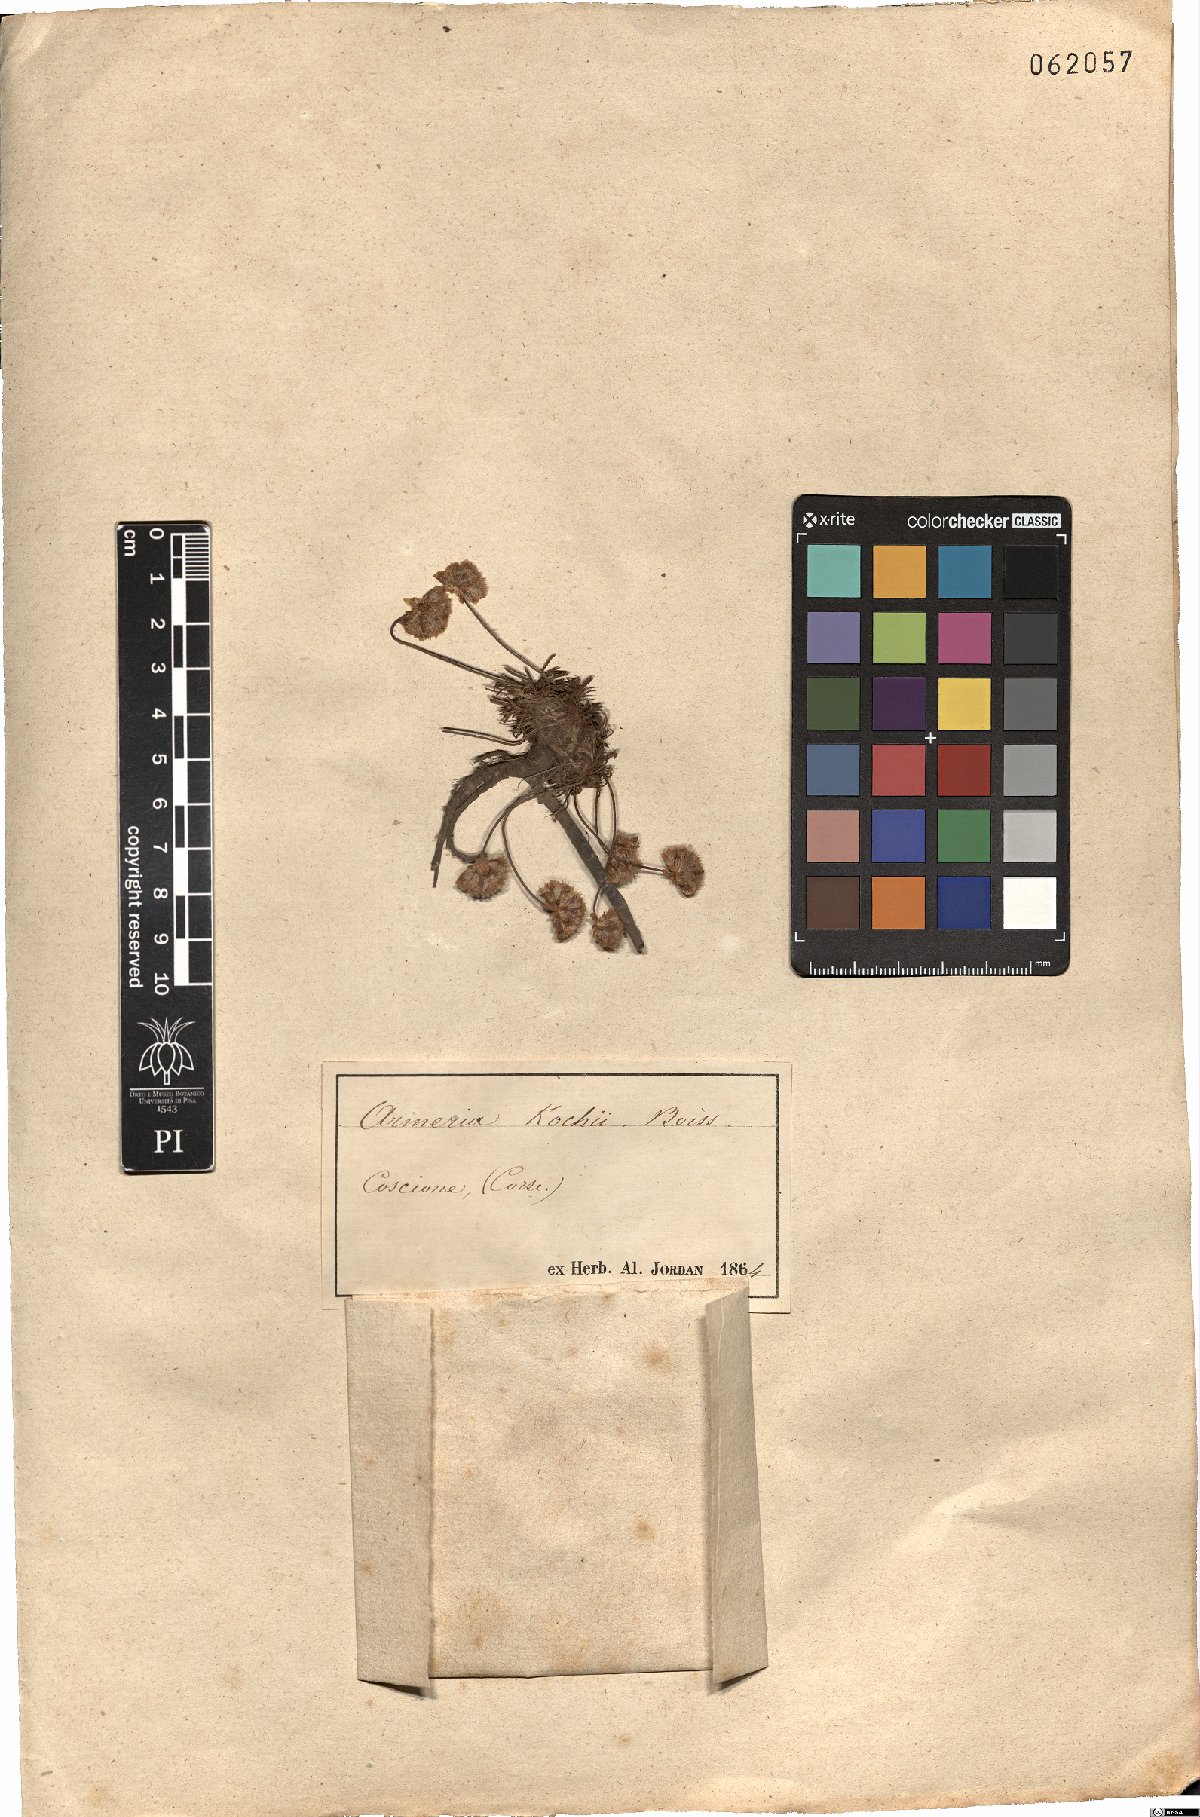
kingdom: Plantae
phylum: Tracheophyta
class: Magnoliopsida
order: Caryophyllales
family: Plumbaginaceae
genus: Armeria
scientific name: Armeria multiceps
